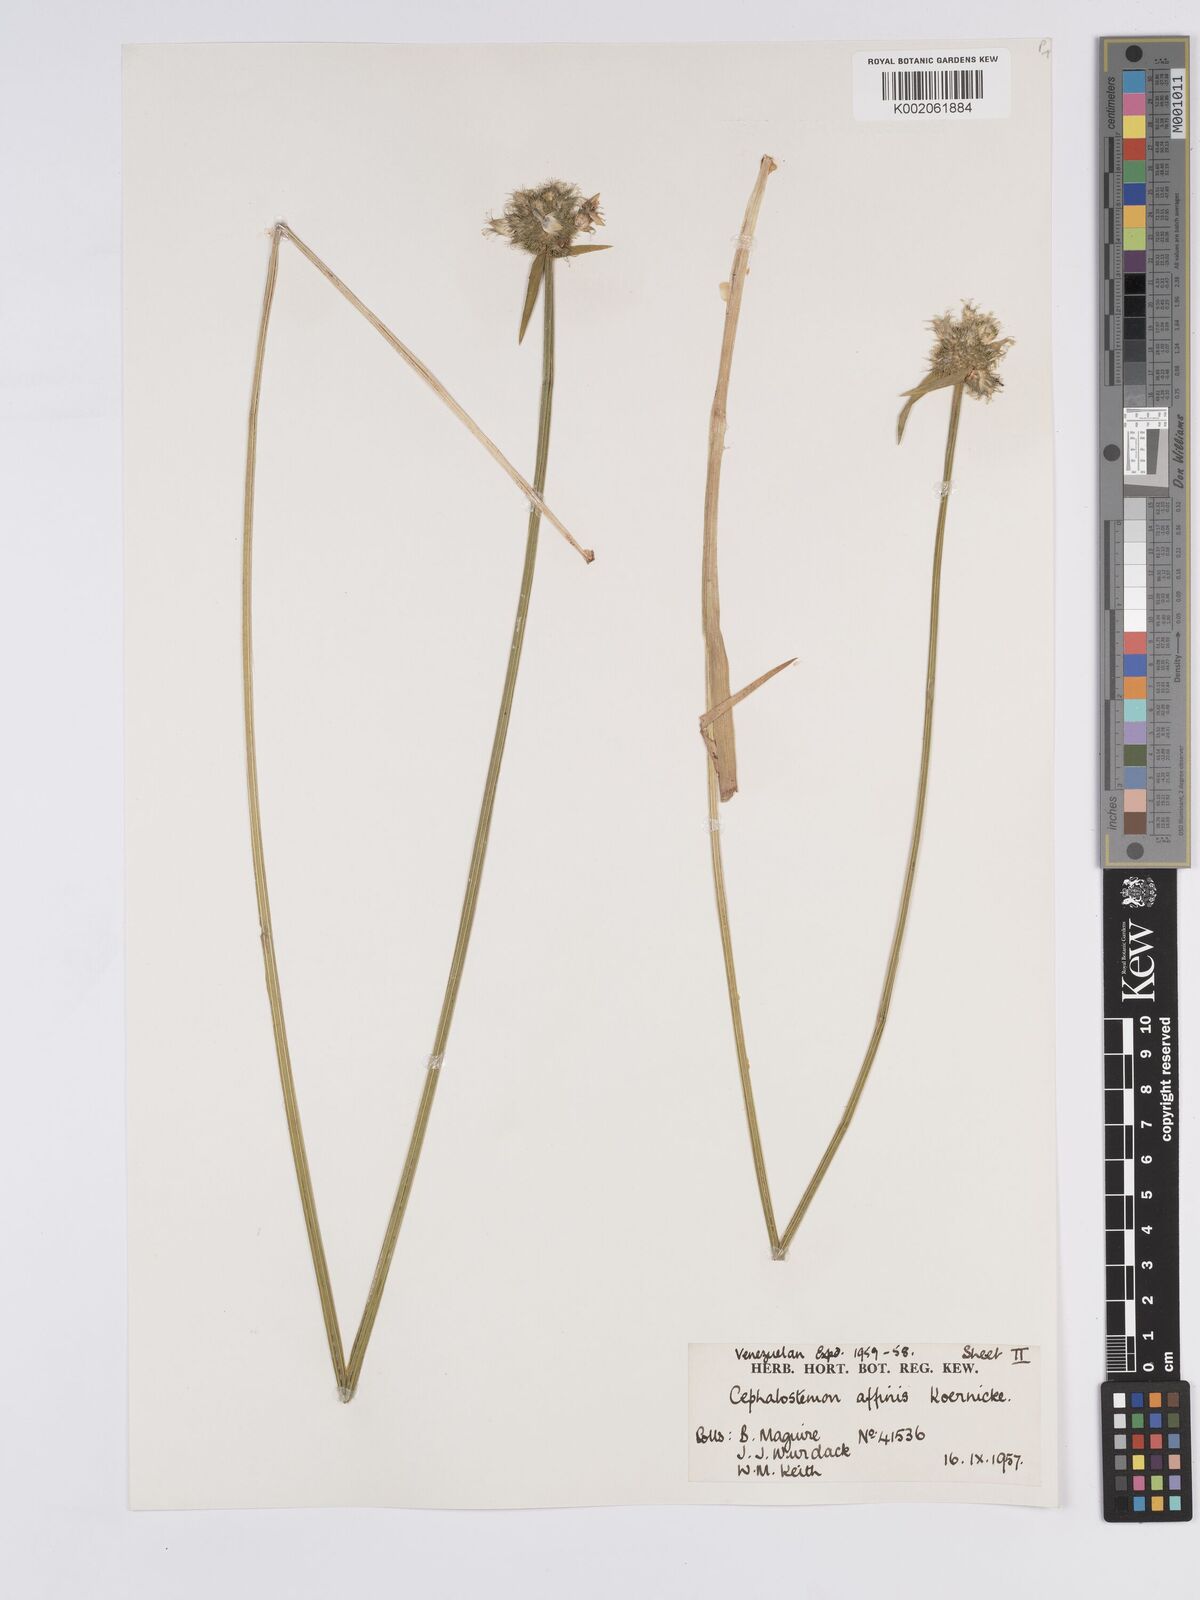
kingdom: Plantae
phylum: Tracheophyta
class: Liliopsida
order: Poales
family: Rapateaceae
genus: Cephalostemon
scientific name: Cephalostemon affinis
